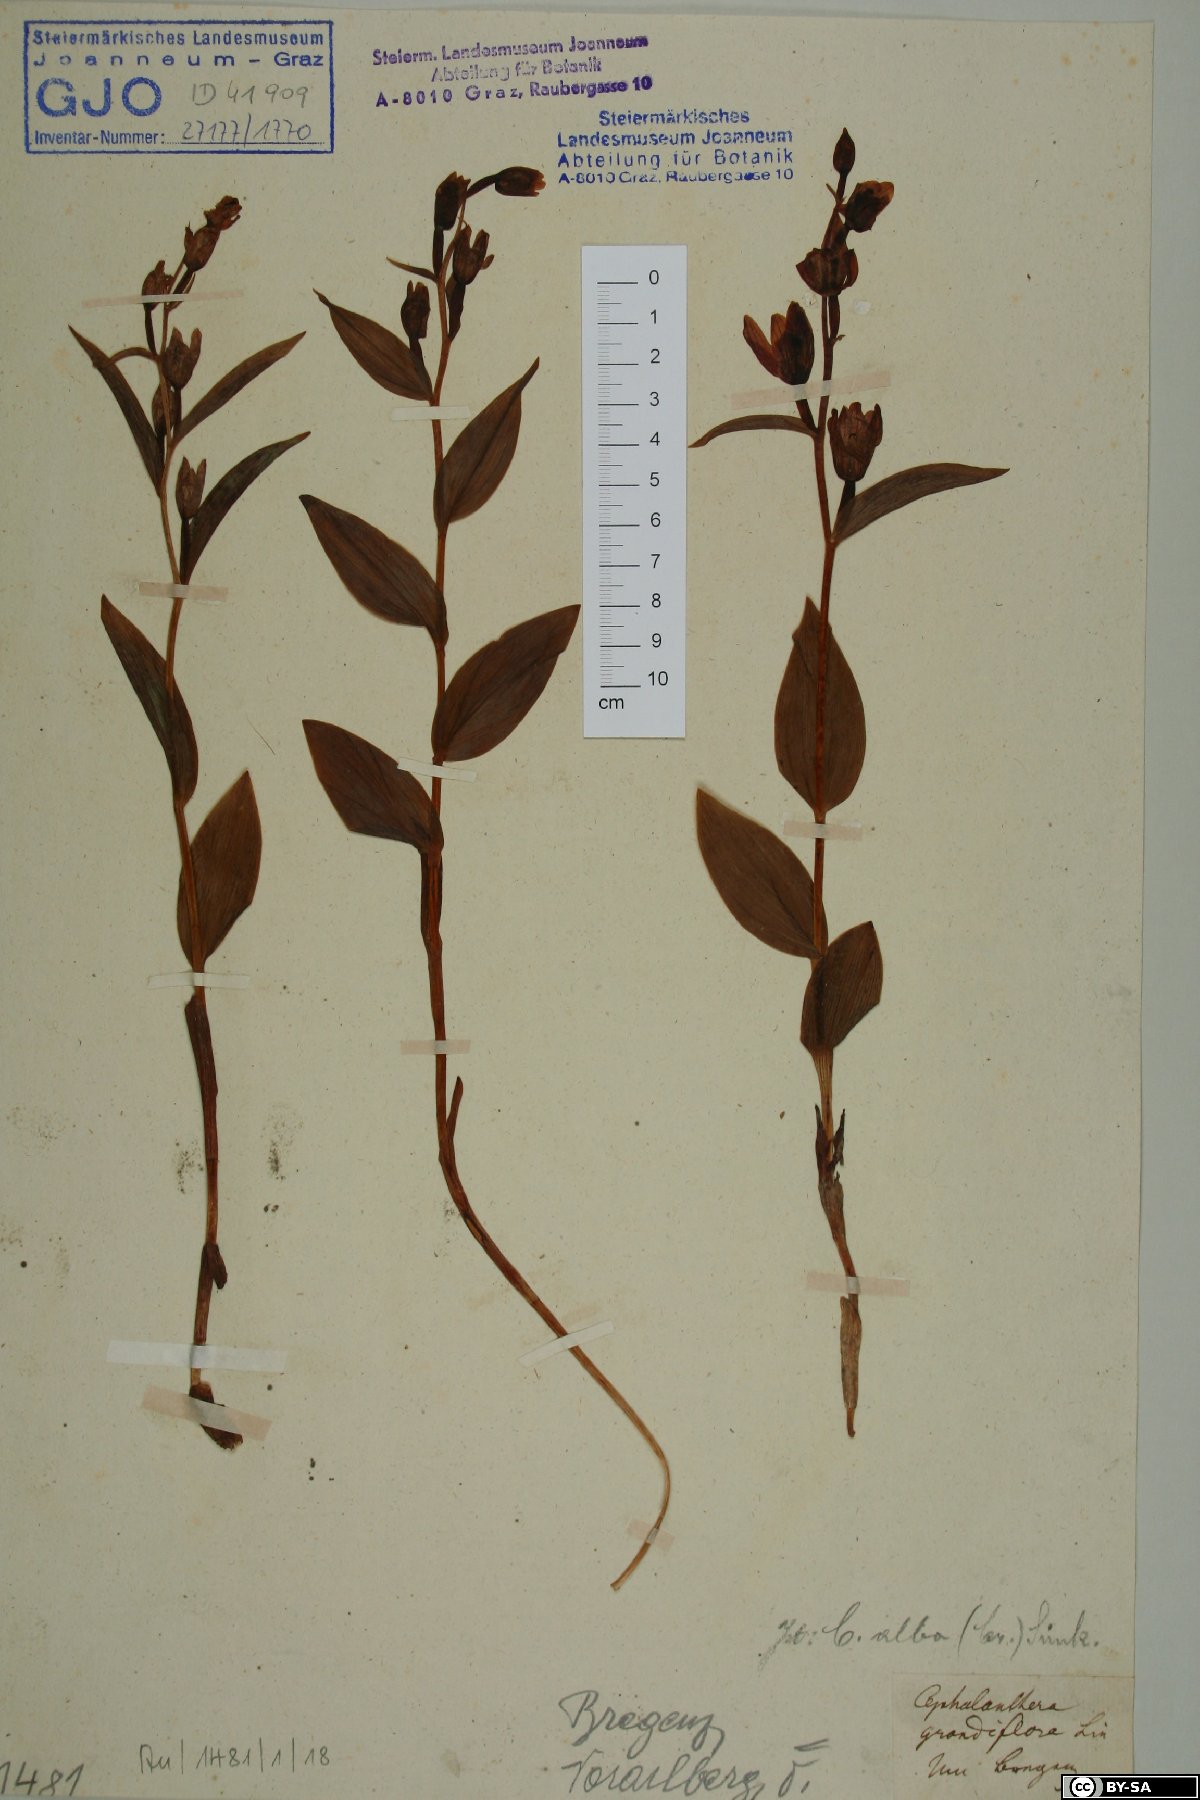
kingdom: Plantae
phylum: Tracheophyta
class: Liliopsida
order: Asparagales
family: Orchidaceae
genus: Cephalanthera
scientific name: Cephalanthera longifolia
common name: Narrow-leaved helleborine
